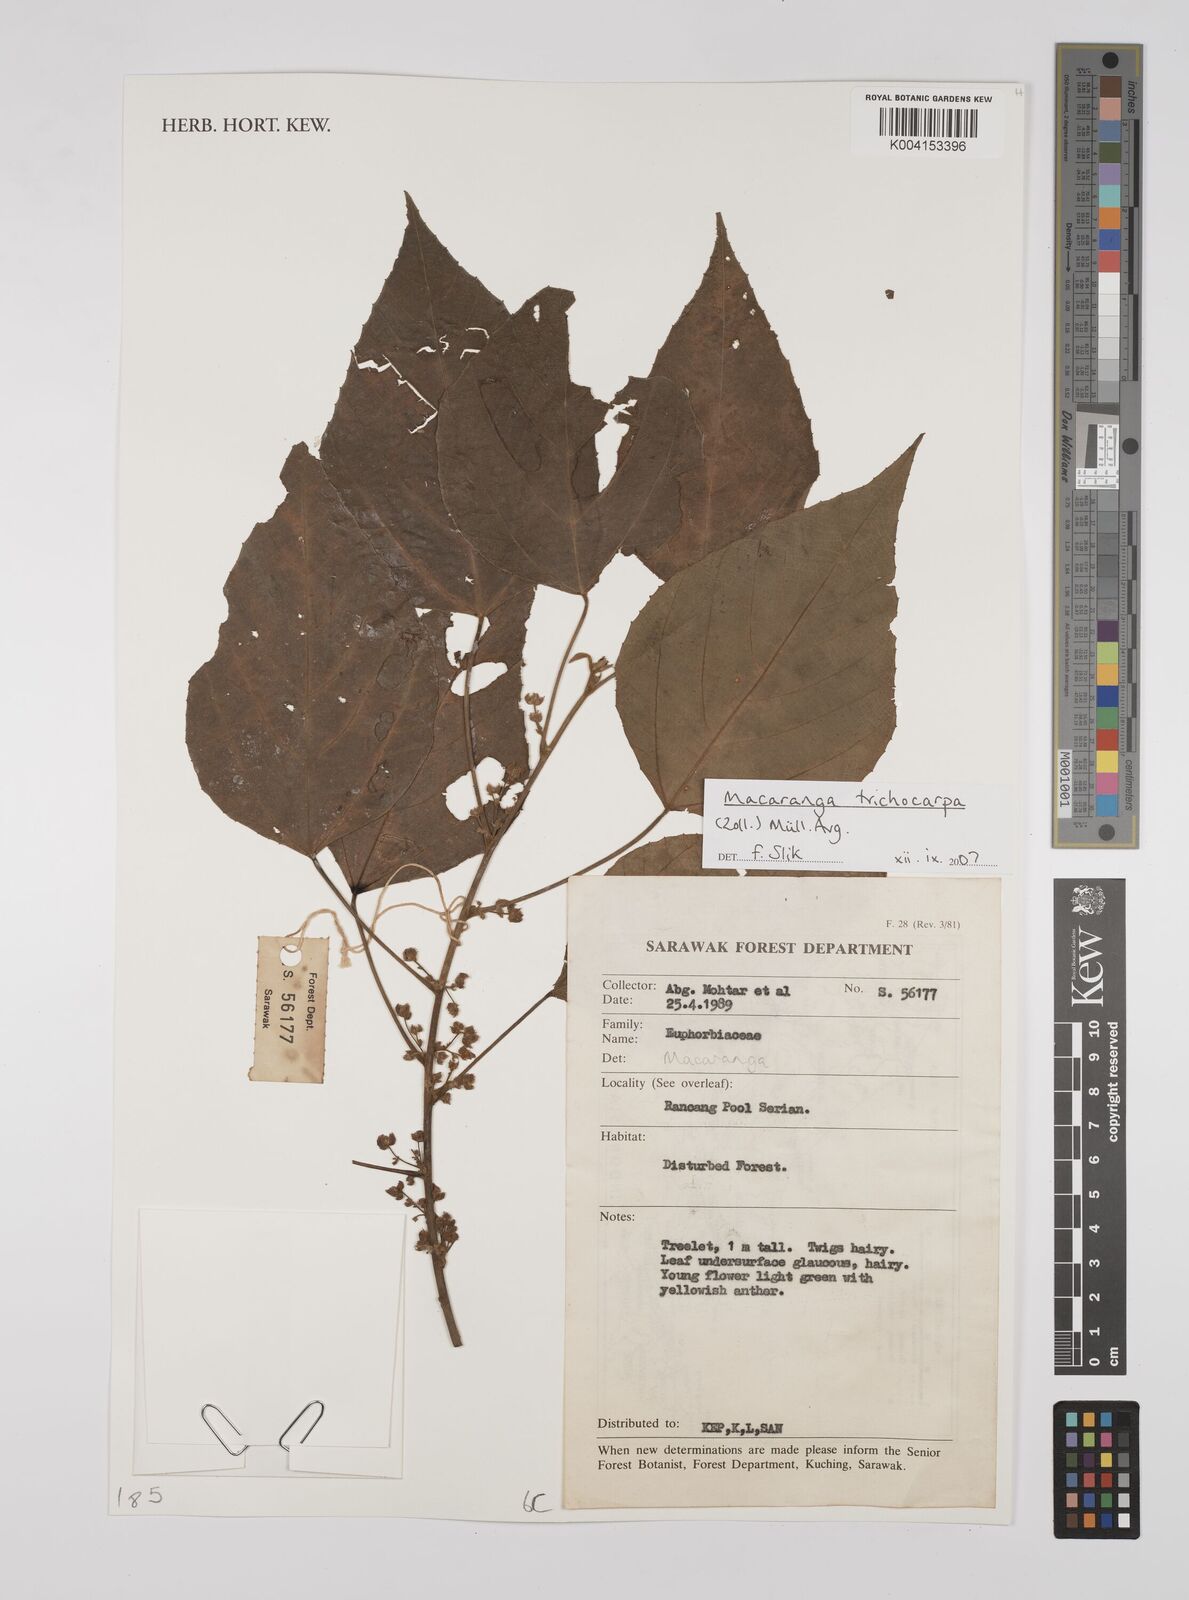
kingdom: Plantae
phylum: Tracheophyta
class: Magnoliopsida
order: Malpighiales
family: Euphorbiaceae
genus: Macaranga
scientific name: Macaranga trichocarpa
